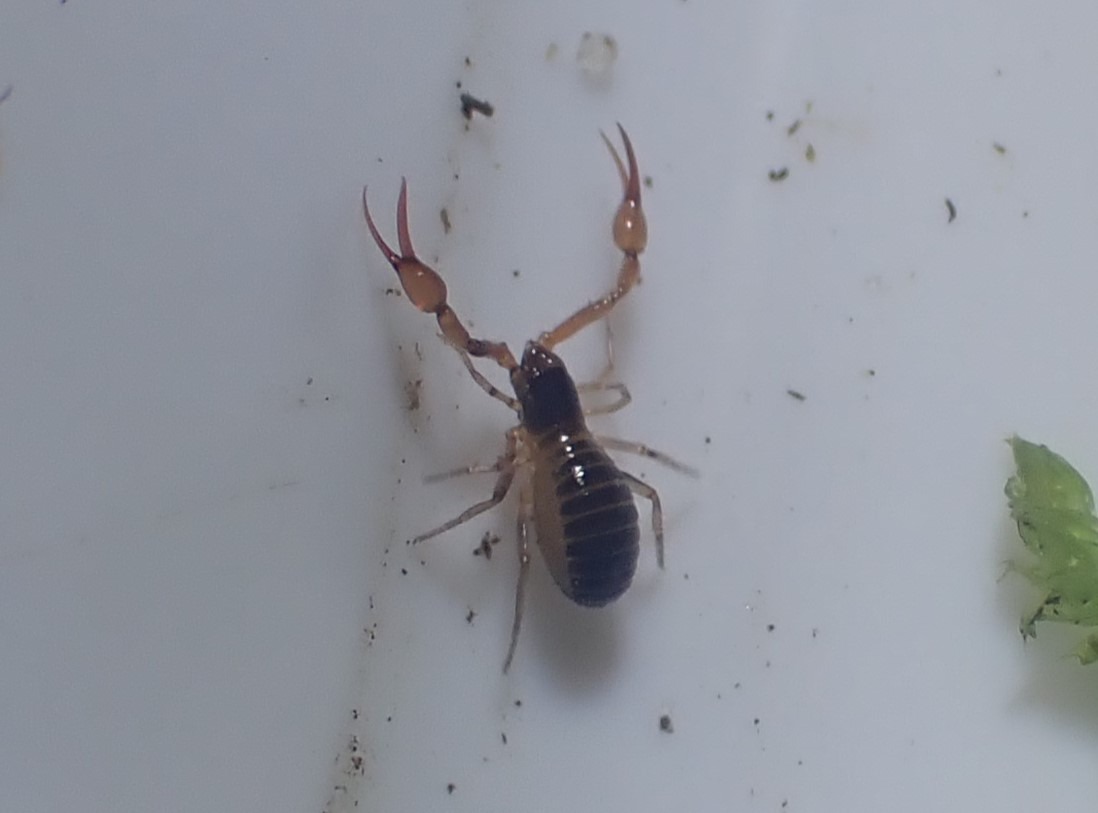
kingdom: Animalia
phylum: Arthropoda
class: Arachnida
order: Pseudoscorpiones
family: Neobisiidae
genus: Neobisium
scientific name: Neobisium carcinoides
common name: Almindelig mosskorpion
